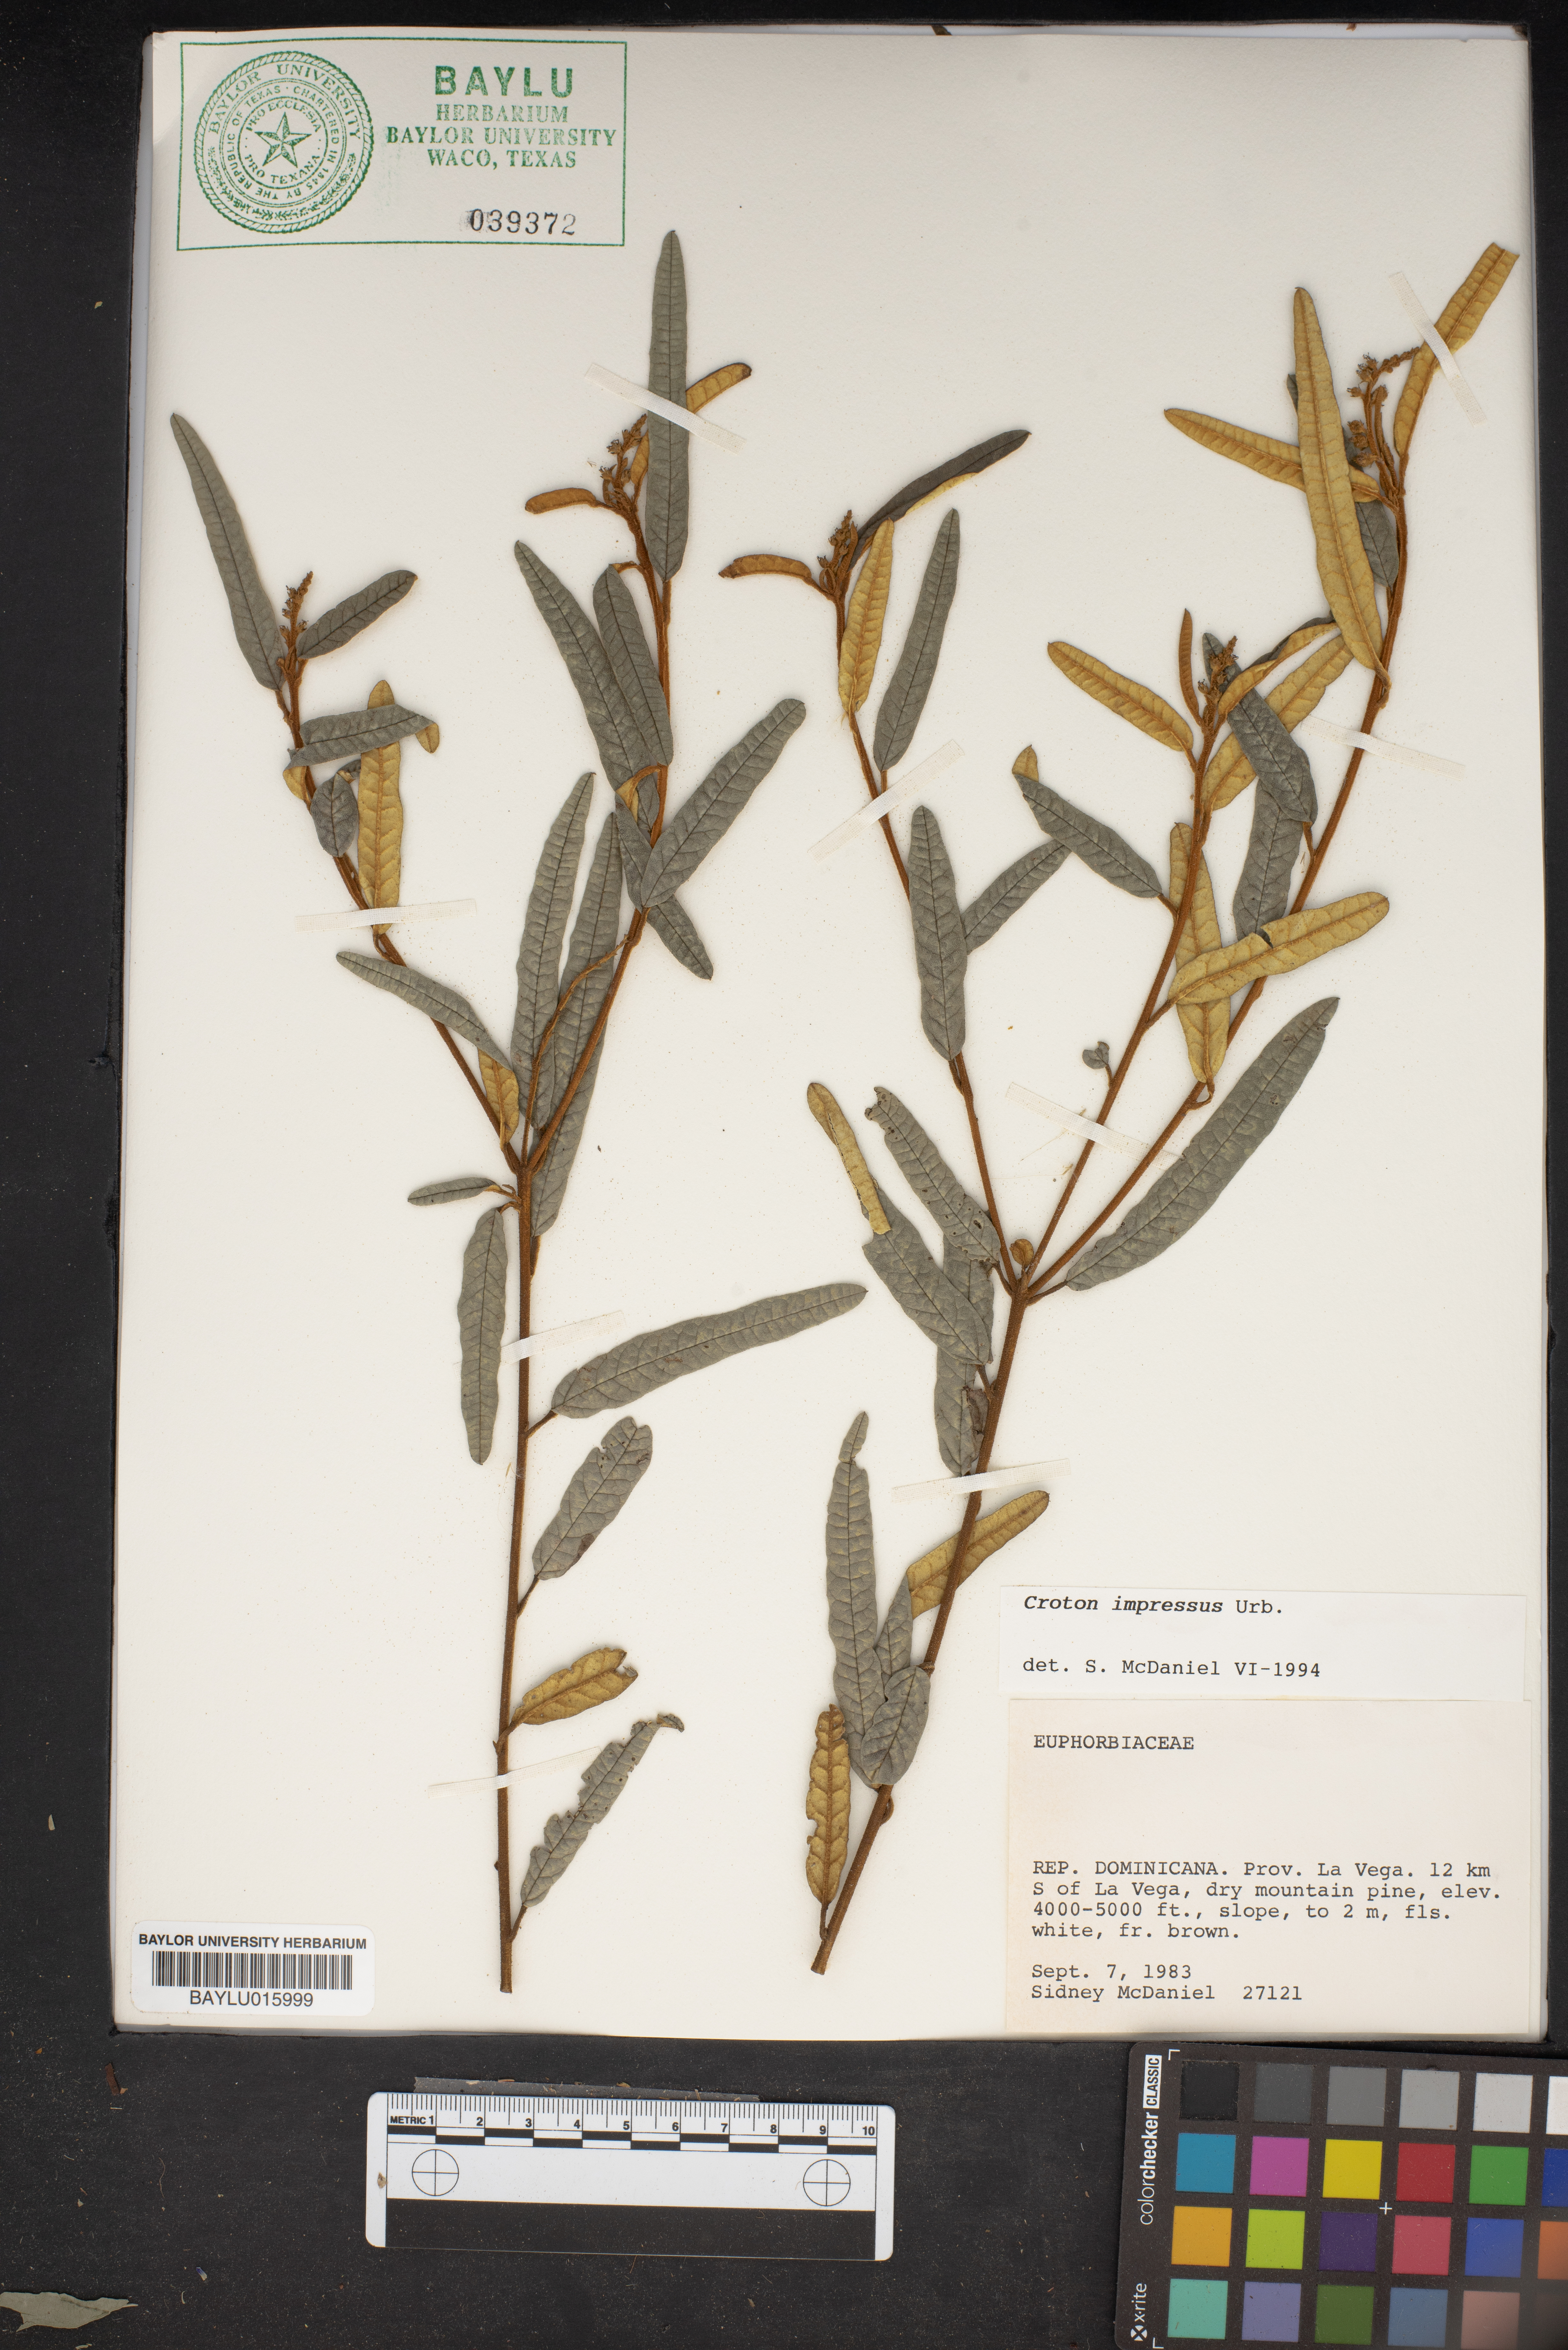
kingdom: Plantae
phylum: Tracheophyta
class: Magnoliopsida
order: Malpighiales
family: Euphorbiaceae
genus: Croton
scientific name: Croton impressus
